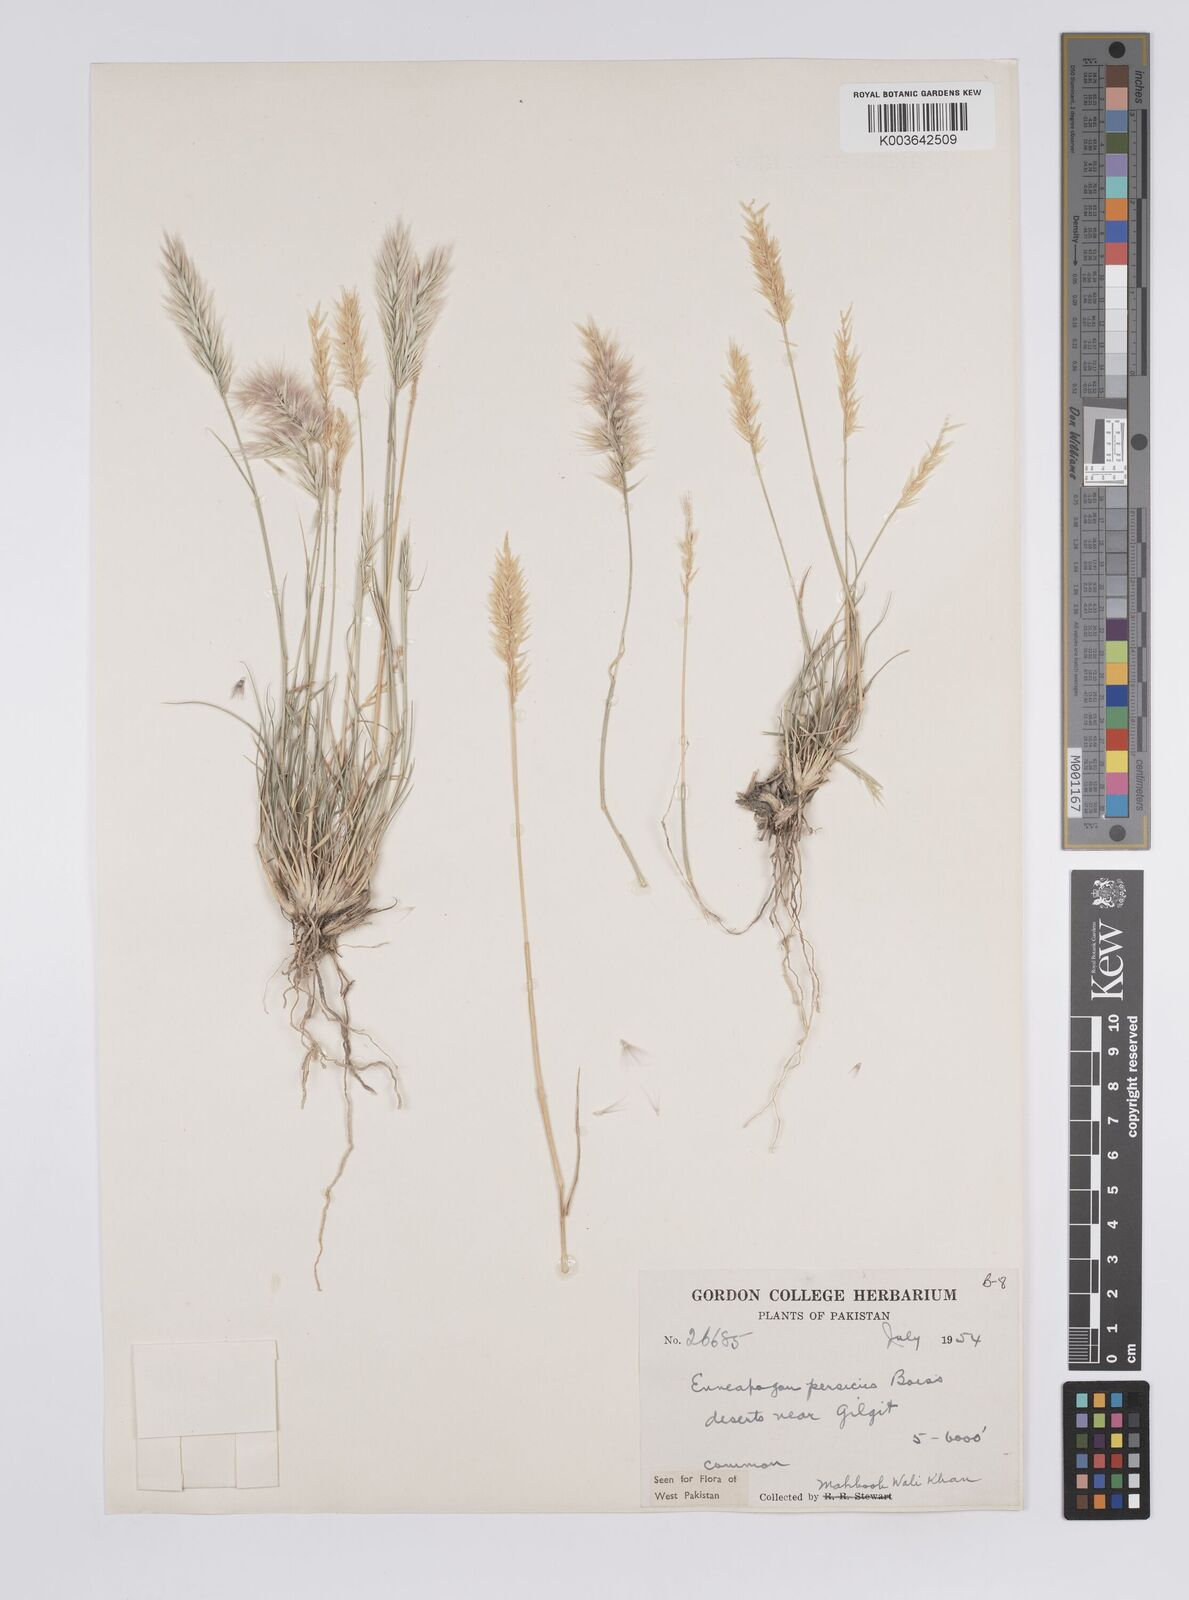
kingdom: Plantae
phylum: Tracheophyta
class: Liliopsida
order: Poales
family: Poaceae
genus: Enneapogon
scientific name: Enneapogon persicus
